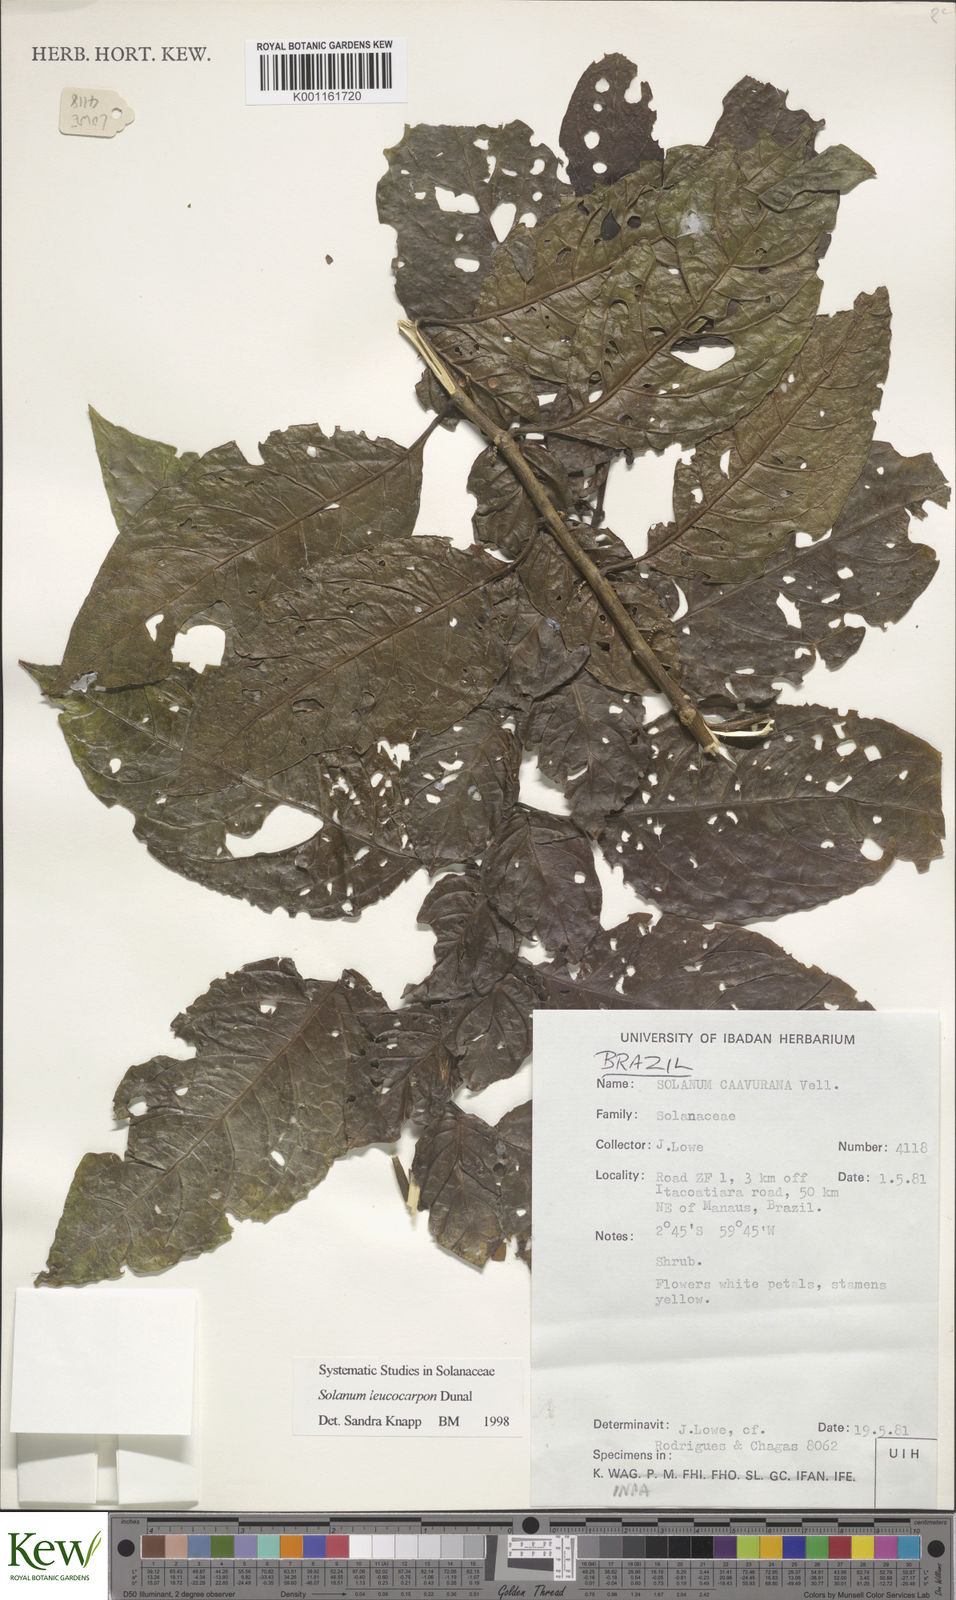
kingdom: Plantae
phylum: Tracheophyta
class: Magnoliopsida
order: Solanales
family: Solanaceae
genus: Solanum
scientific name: Solanum leucocarpon
